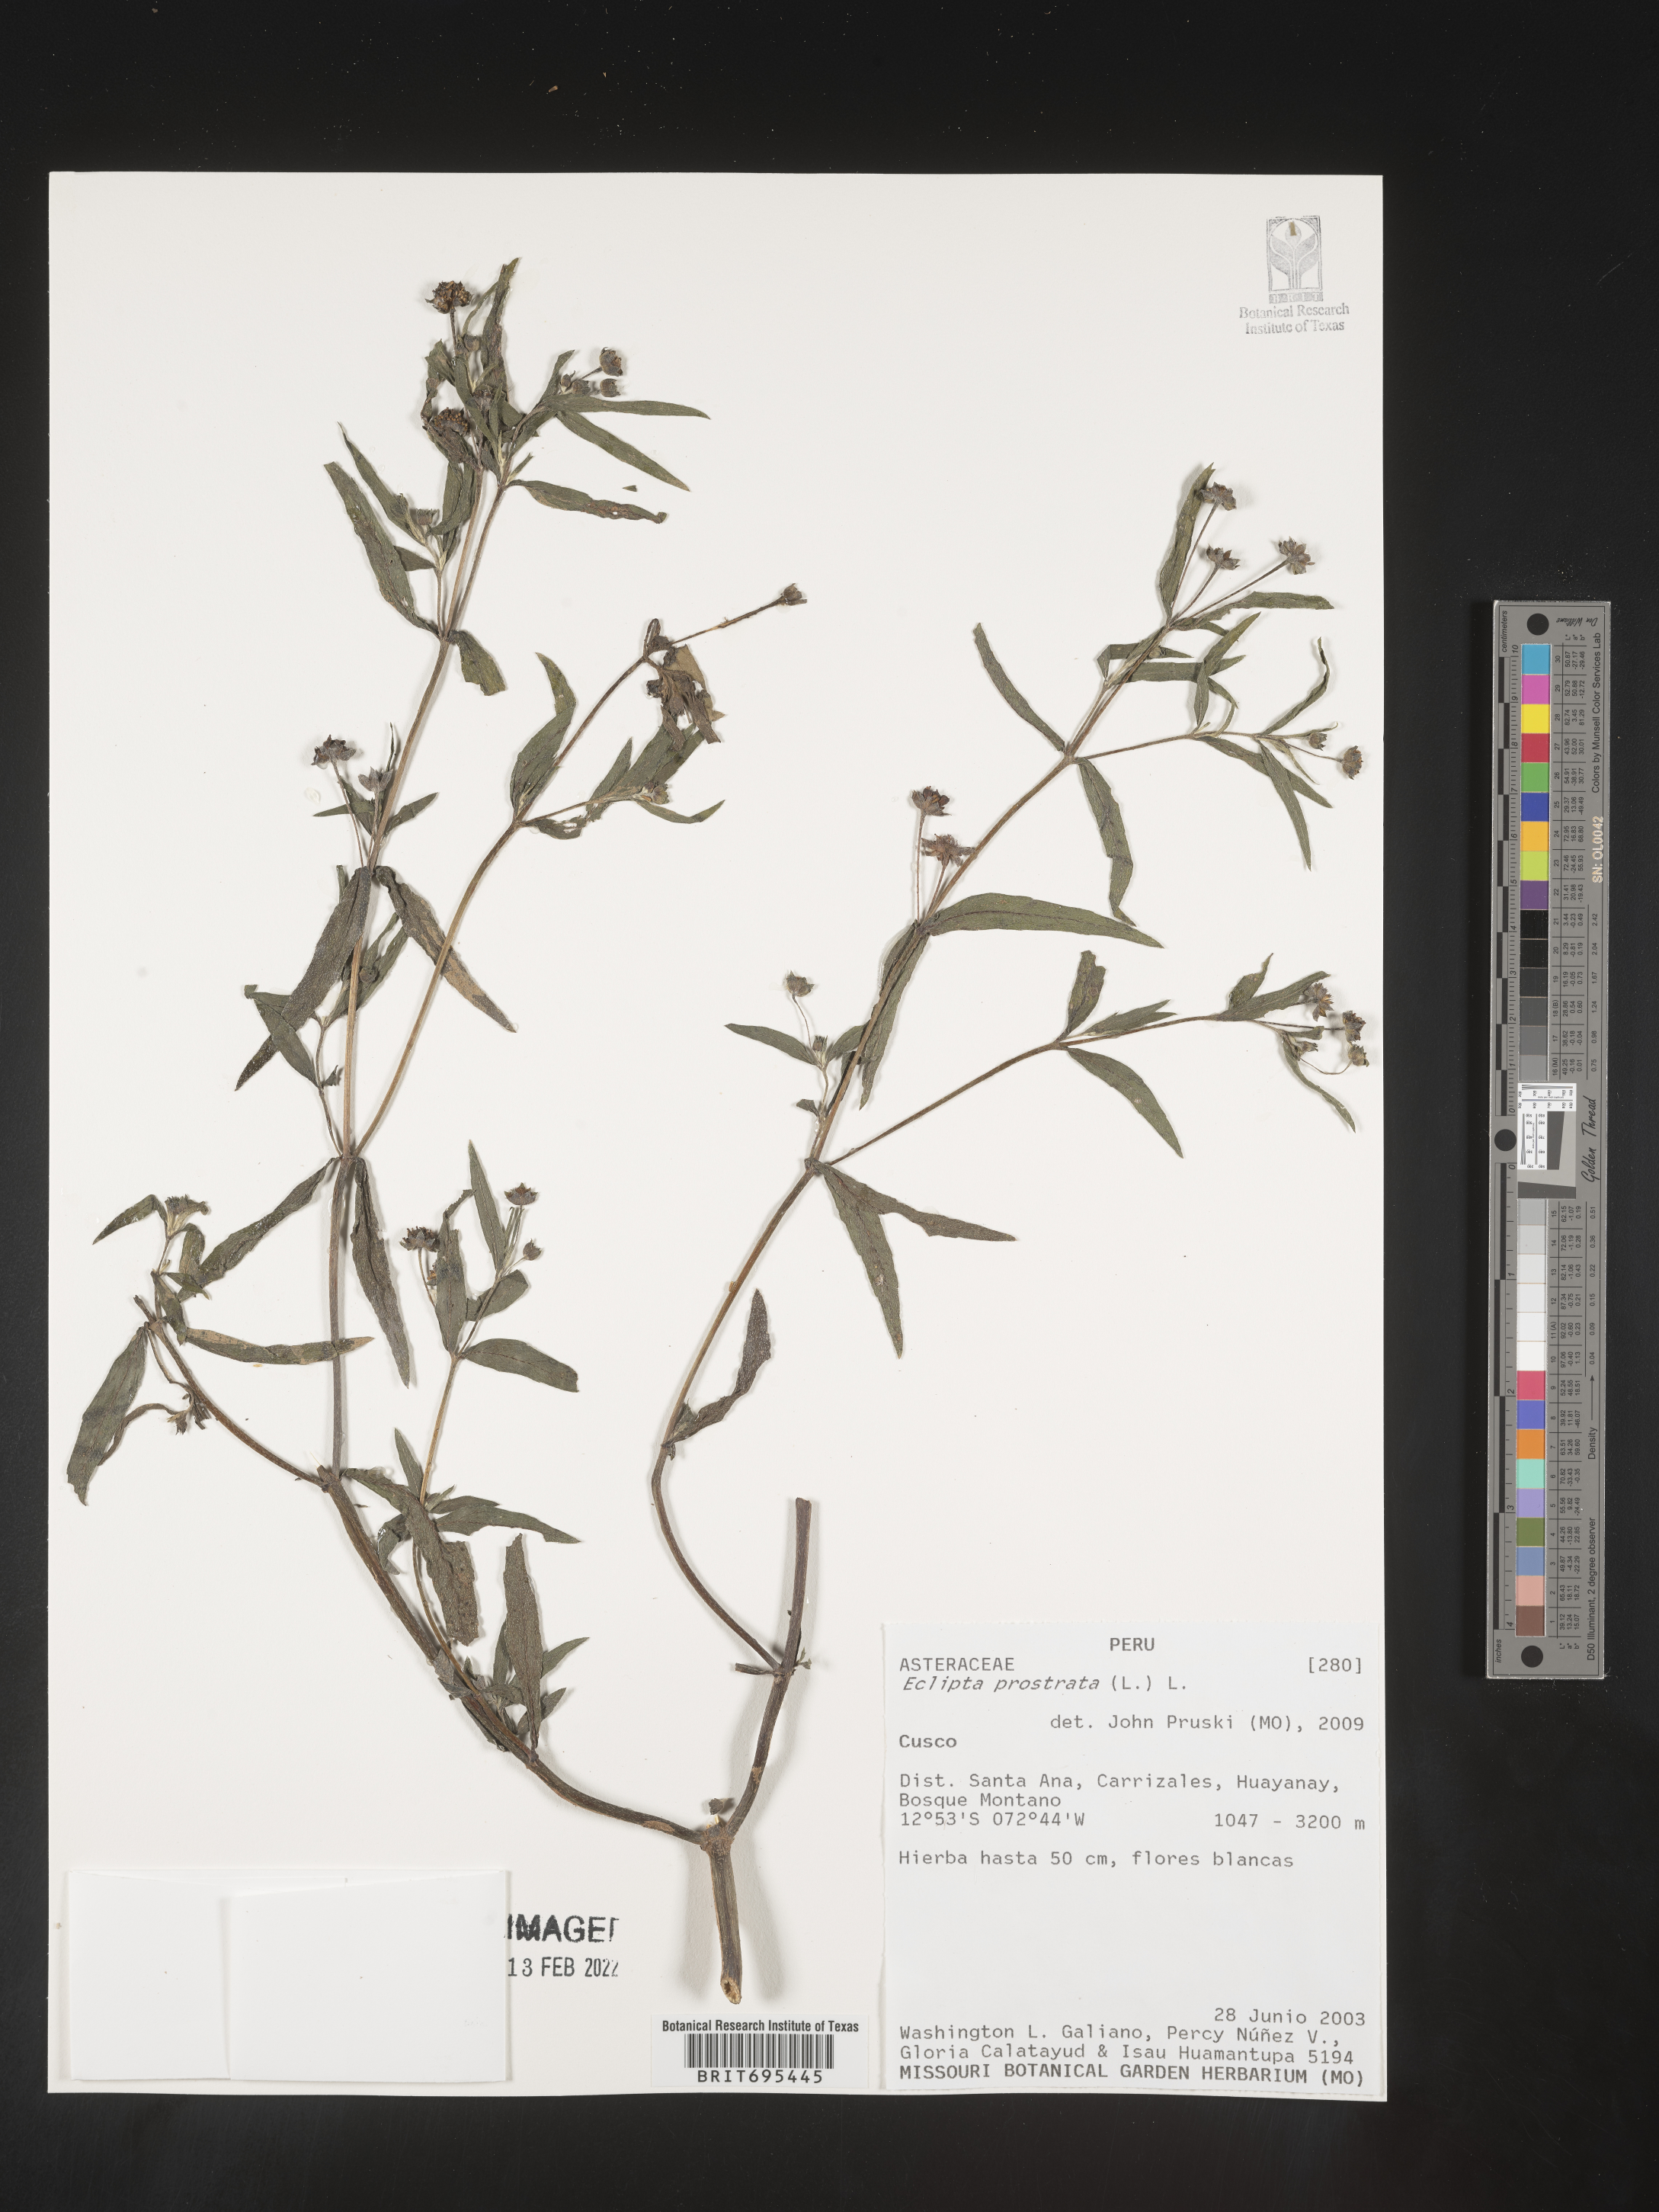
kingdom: Plantae
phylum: Tracheophyta
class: Magnoliopsida
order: Asterales
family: Asteraceae
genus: Eclipta
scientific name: Eclipta
